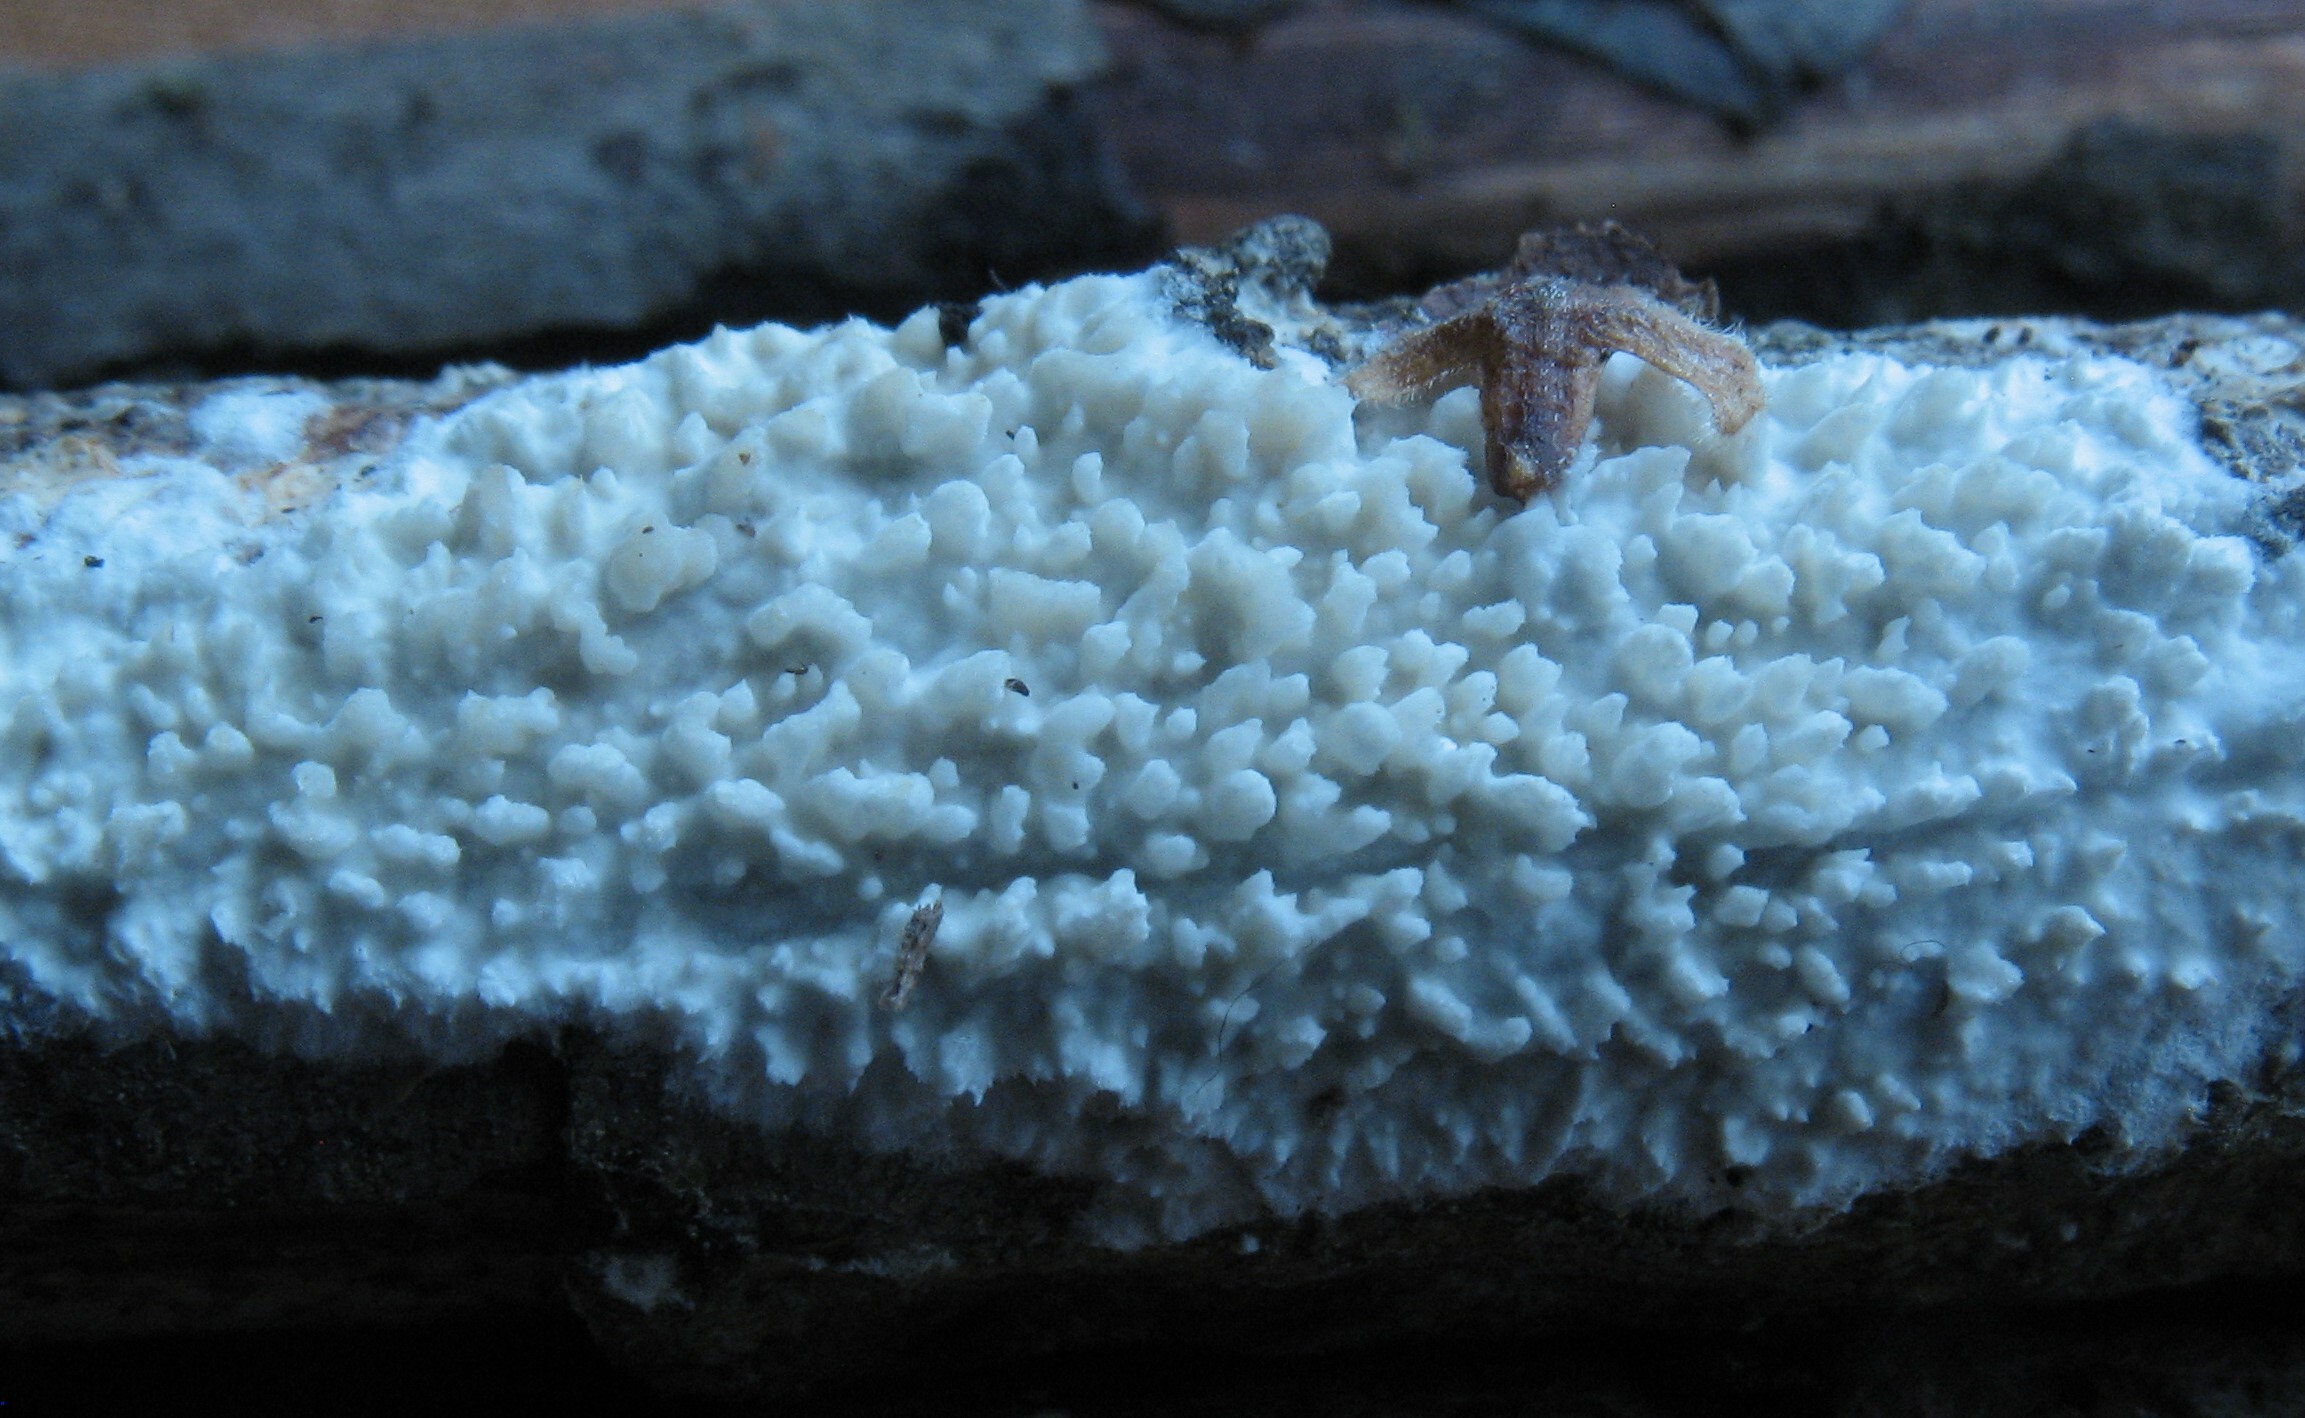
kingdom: Fungi
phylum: Basidiomycota
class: Agaricomycetes
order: Hymenochaetales
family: Schizoporaceae
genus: Xylodon
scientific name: Xylodon radula
